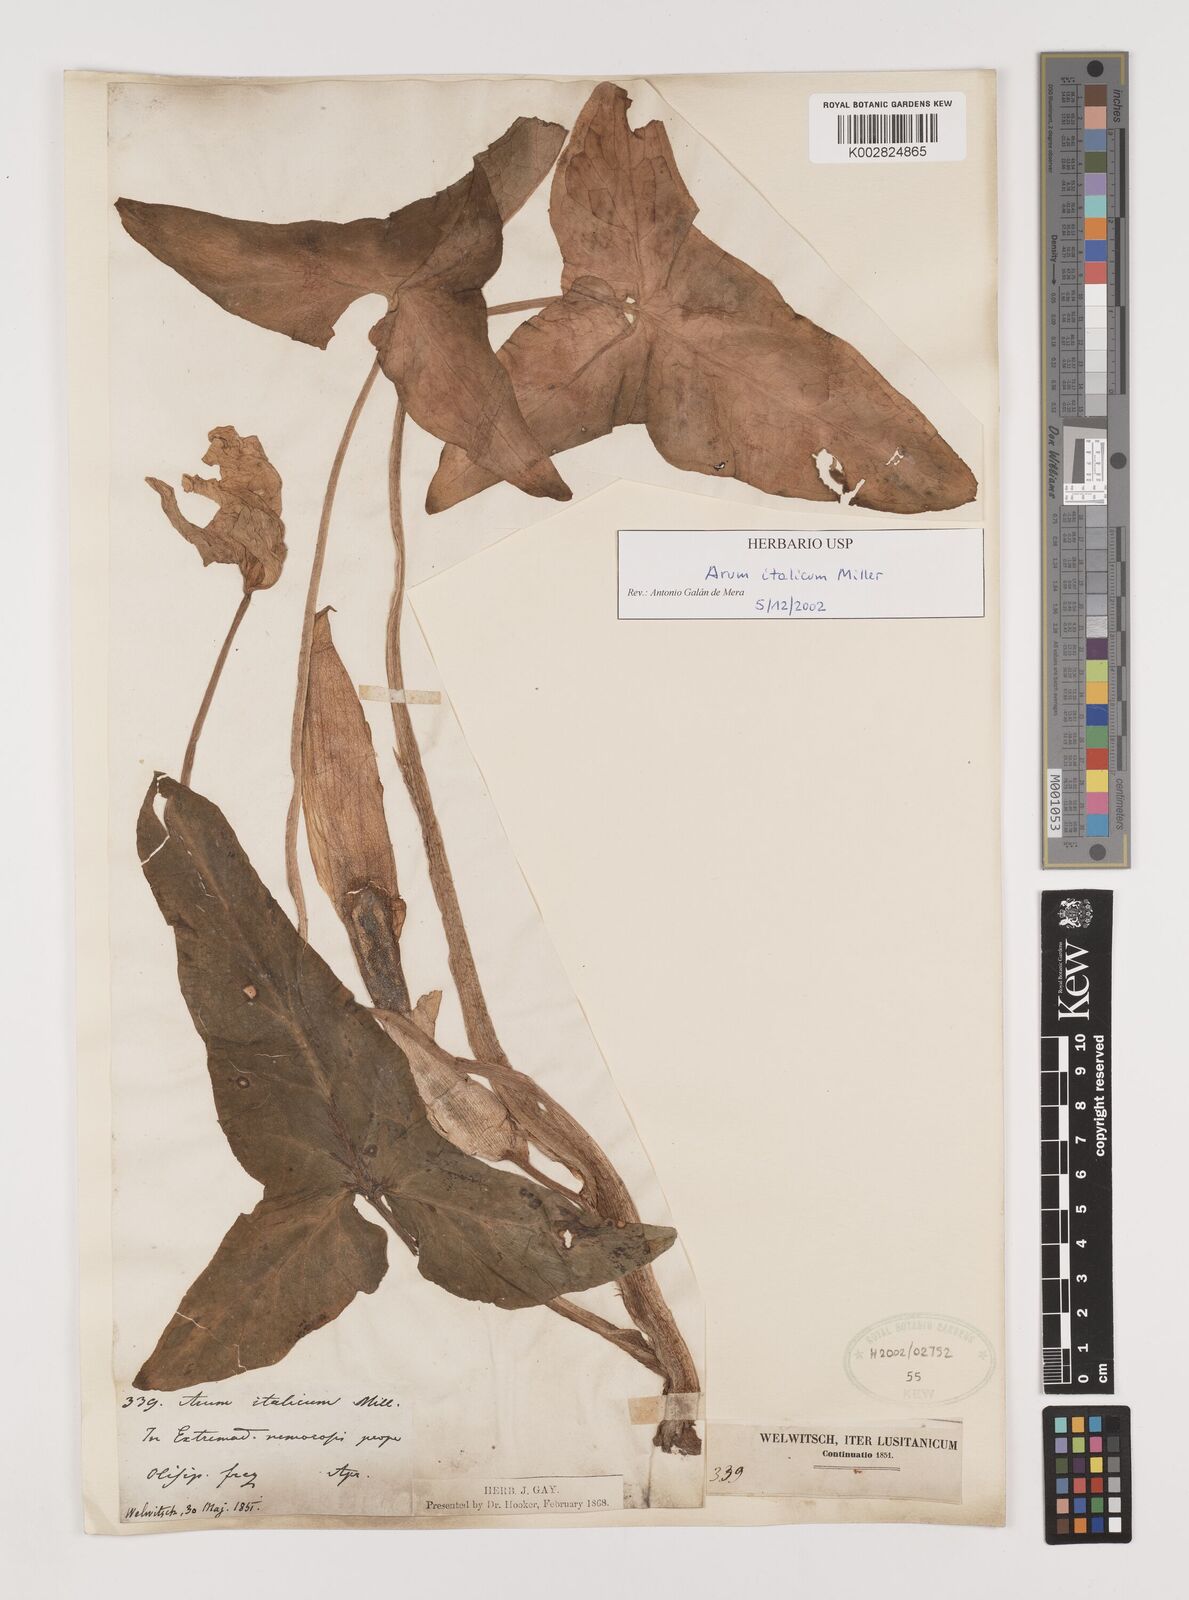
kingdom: Plantae
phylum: Tracheophyta
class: Liliopsida
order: Alismatales
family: Araceae
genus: Arum
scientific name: Arum italicum
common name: Italian lords-and-ladies
